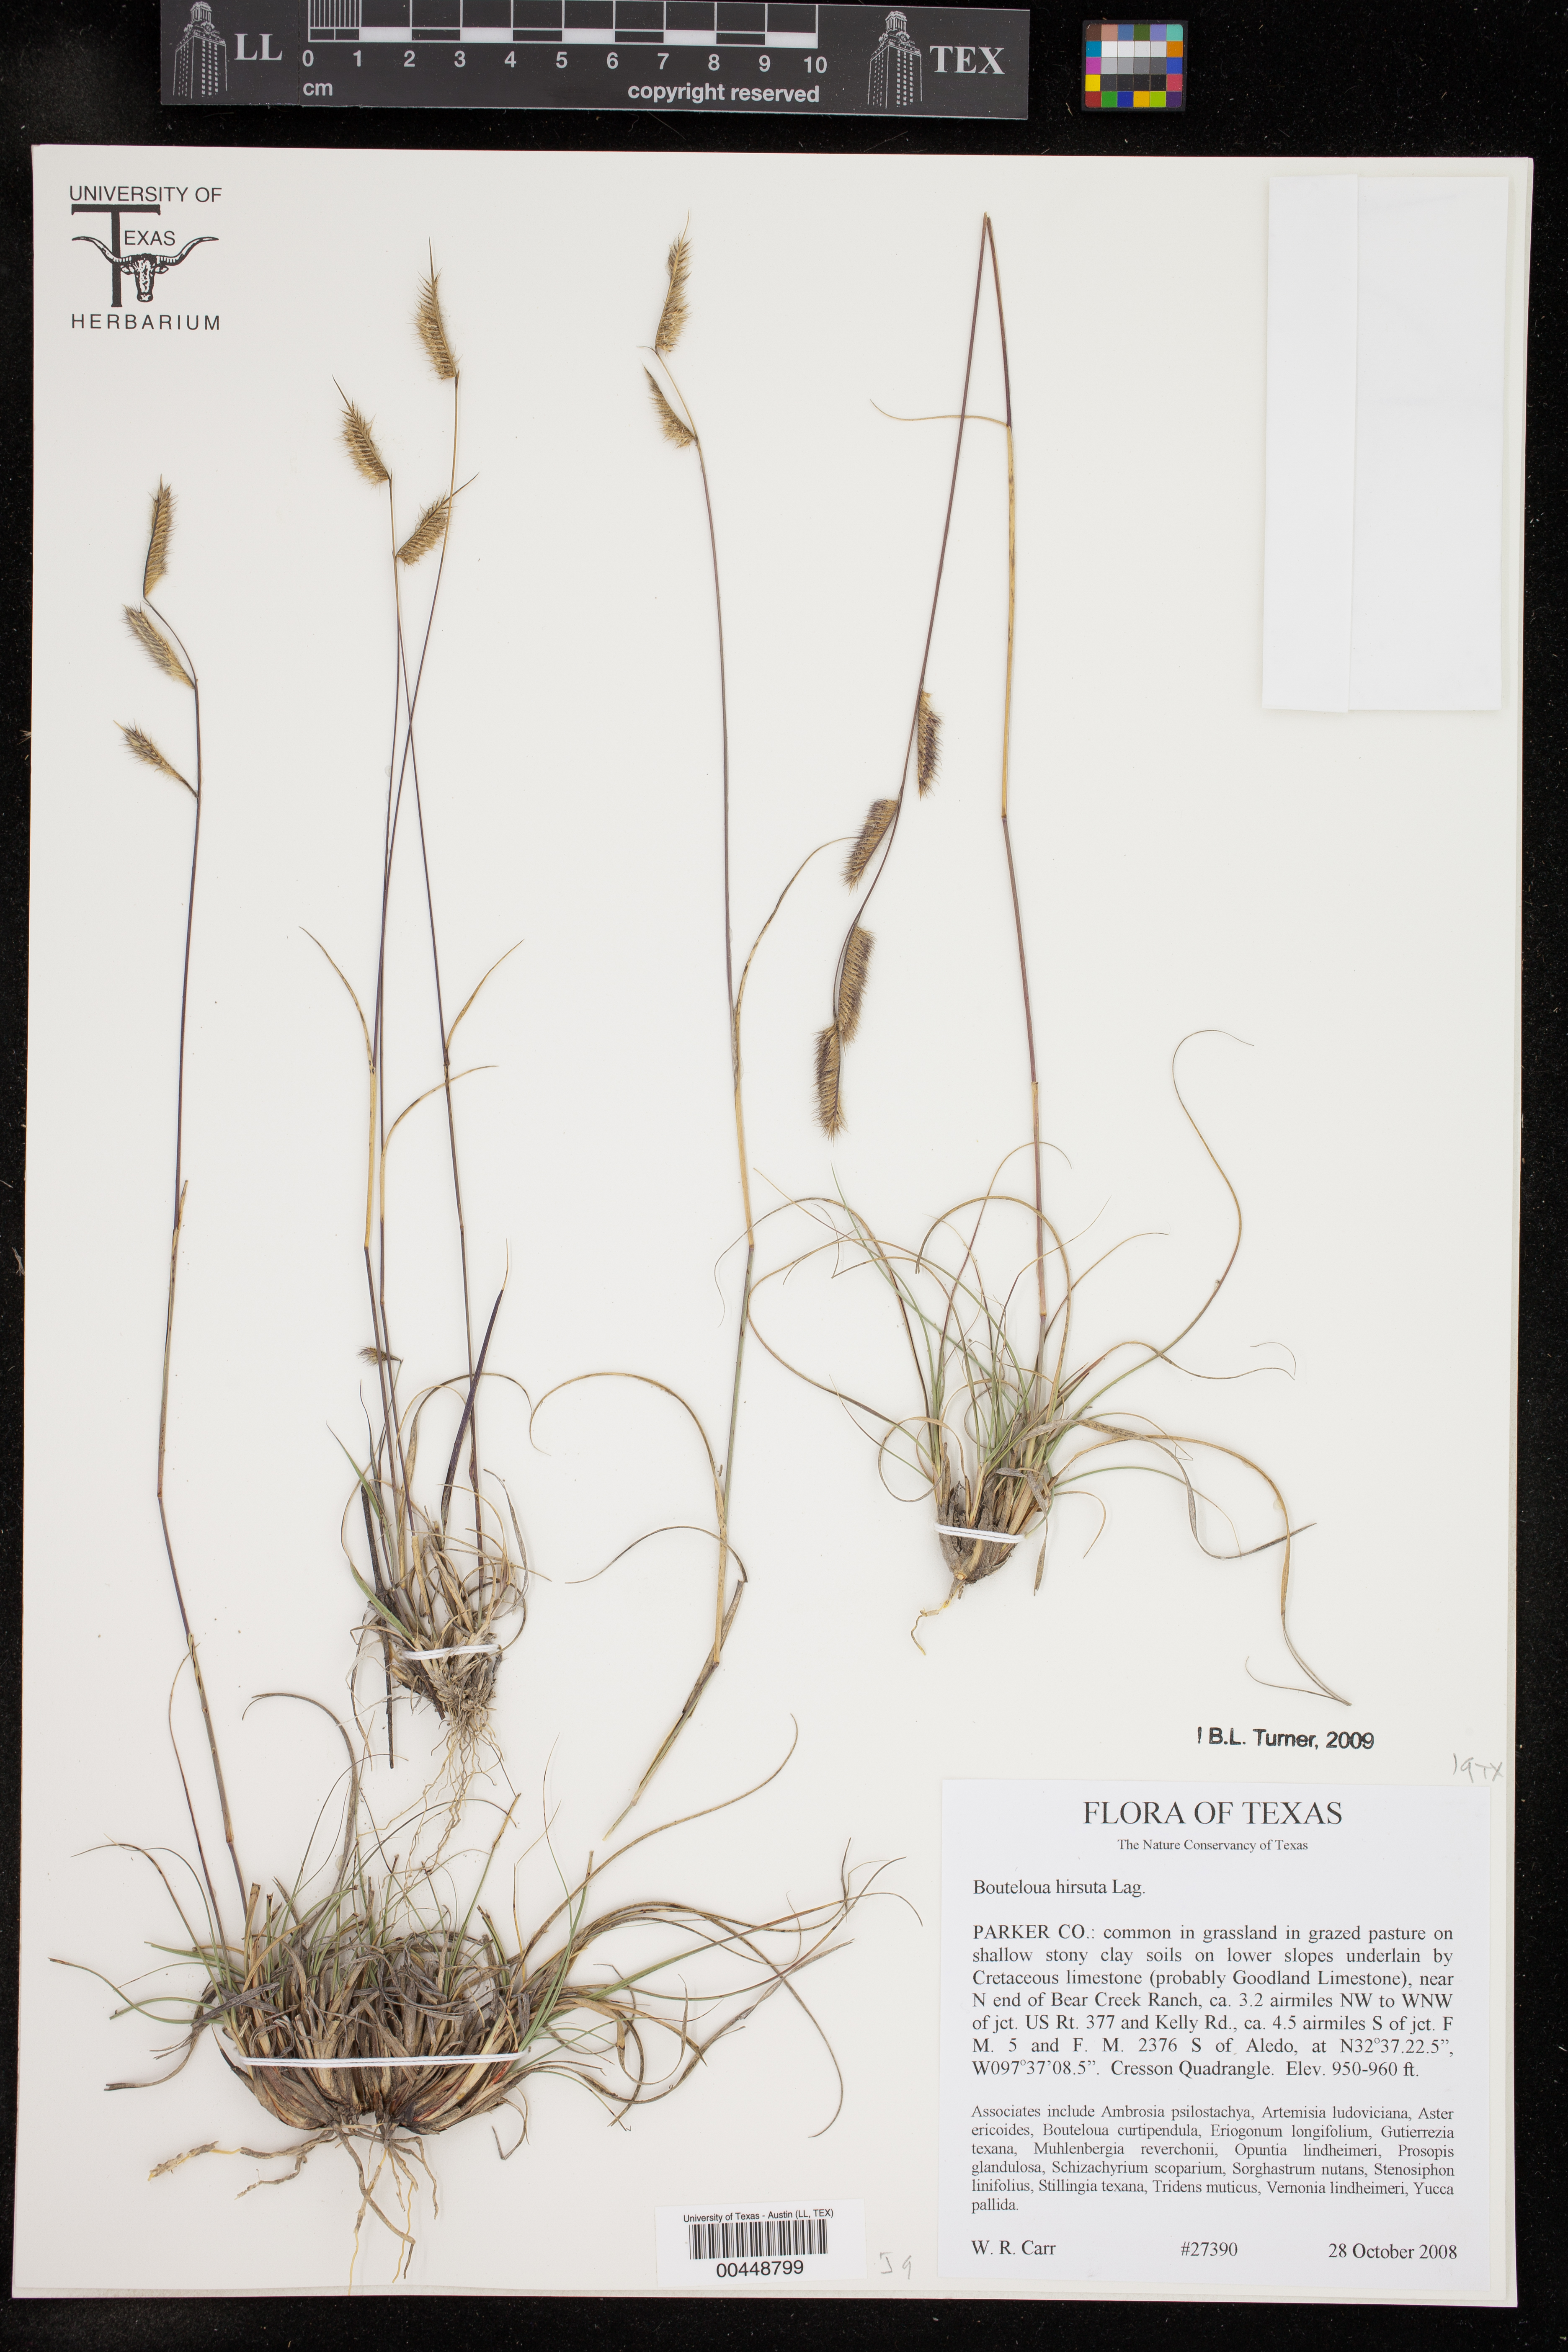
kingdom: Plantae
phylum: Tracheophyta
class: Liliopsida
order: Poales
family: Poaceae
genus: Bouteloua
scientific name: Bouteloua hirsuta
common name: Hairy grama
